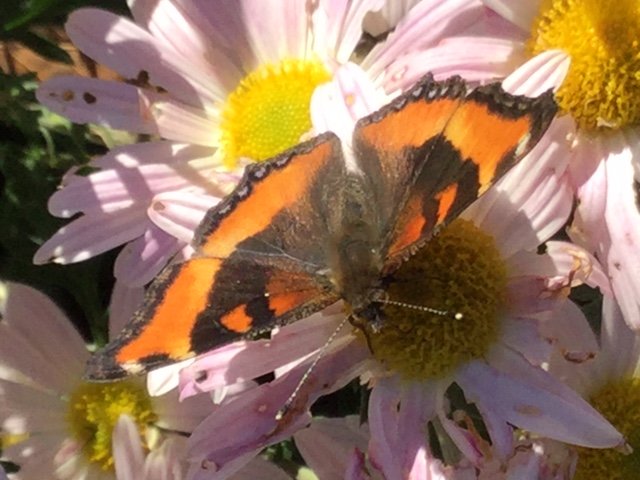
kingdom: Animalia
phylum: Arthropoda
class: Insecta
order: Lepidoptera
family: Nymphalidae
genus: Aglais
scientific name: Aglais milberti
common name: Milbert's Tortoiseshell
